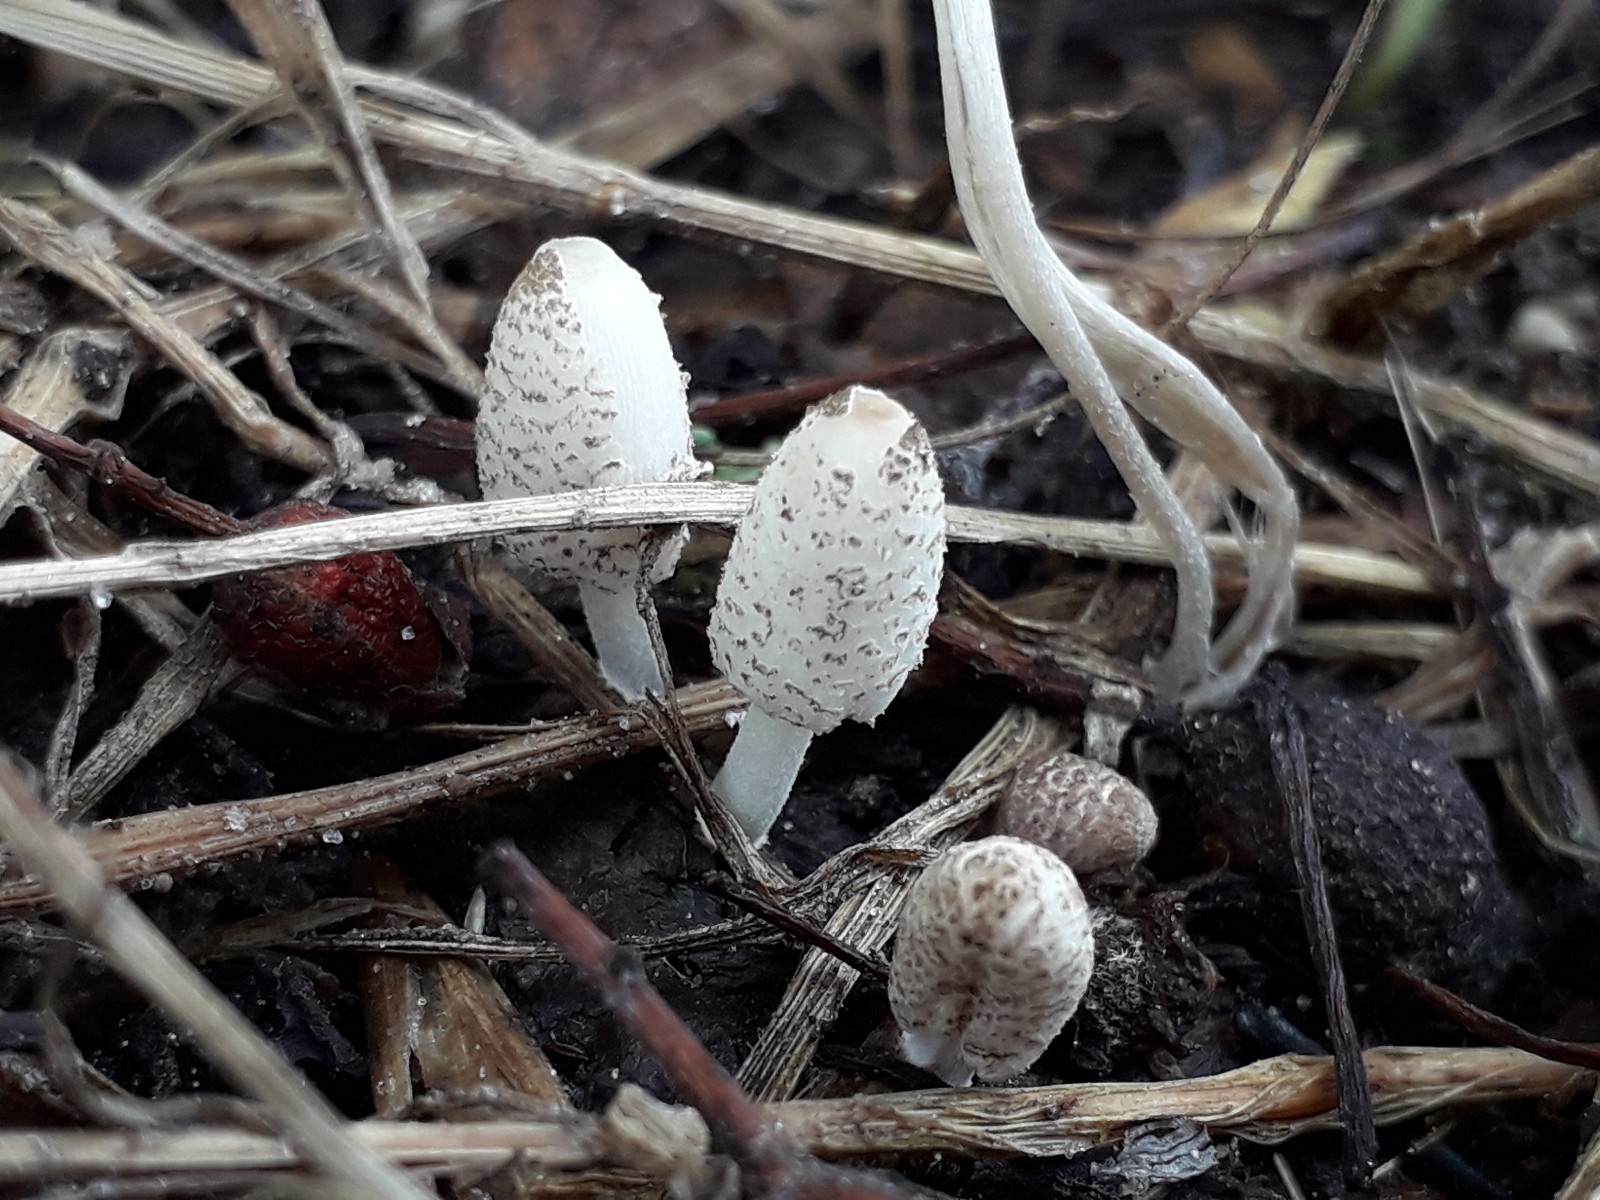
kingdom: Fungi
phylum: Basidiomycota
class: Agaricomycetes
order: Agaricales
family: Psathyrellaceae
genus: Coprinopsis
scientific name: Coprinopsis tigrinella
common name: brunfnugget blækhat
